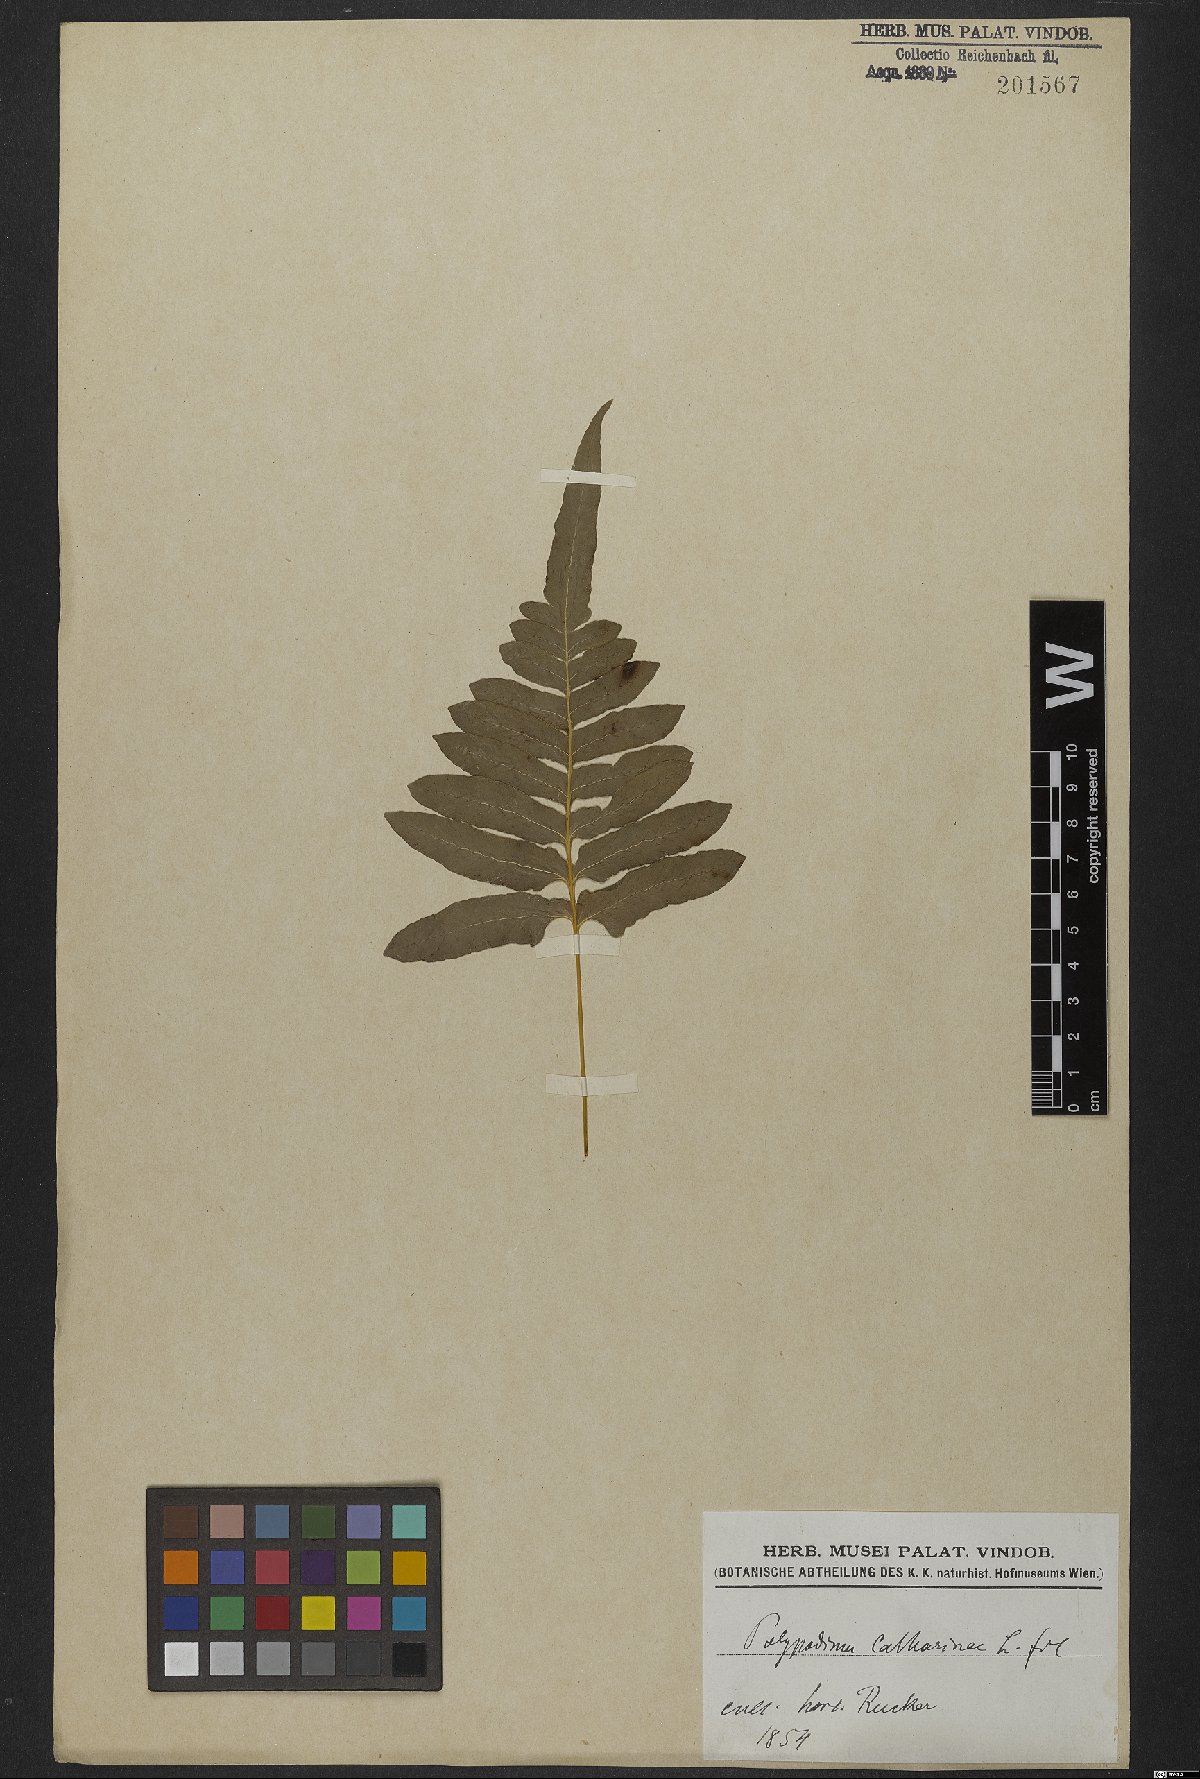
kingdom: Plantae
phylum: Tracheophyta
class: Polypodiopsida
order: Polypodiales
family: Polypodiaceae
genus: Serpocaulon
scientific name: Serpocaulon catharinae
